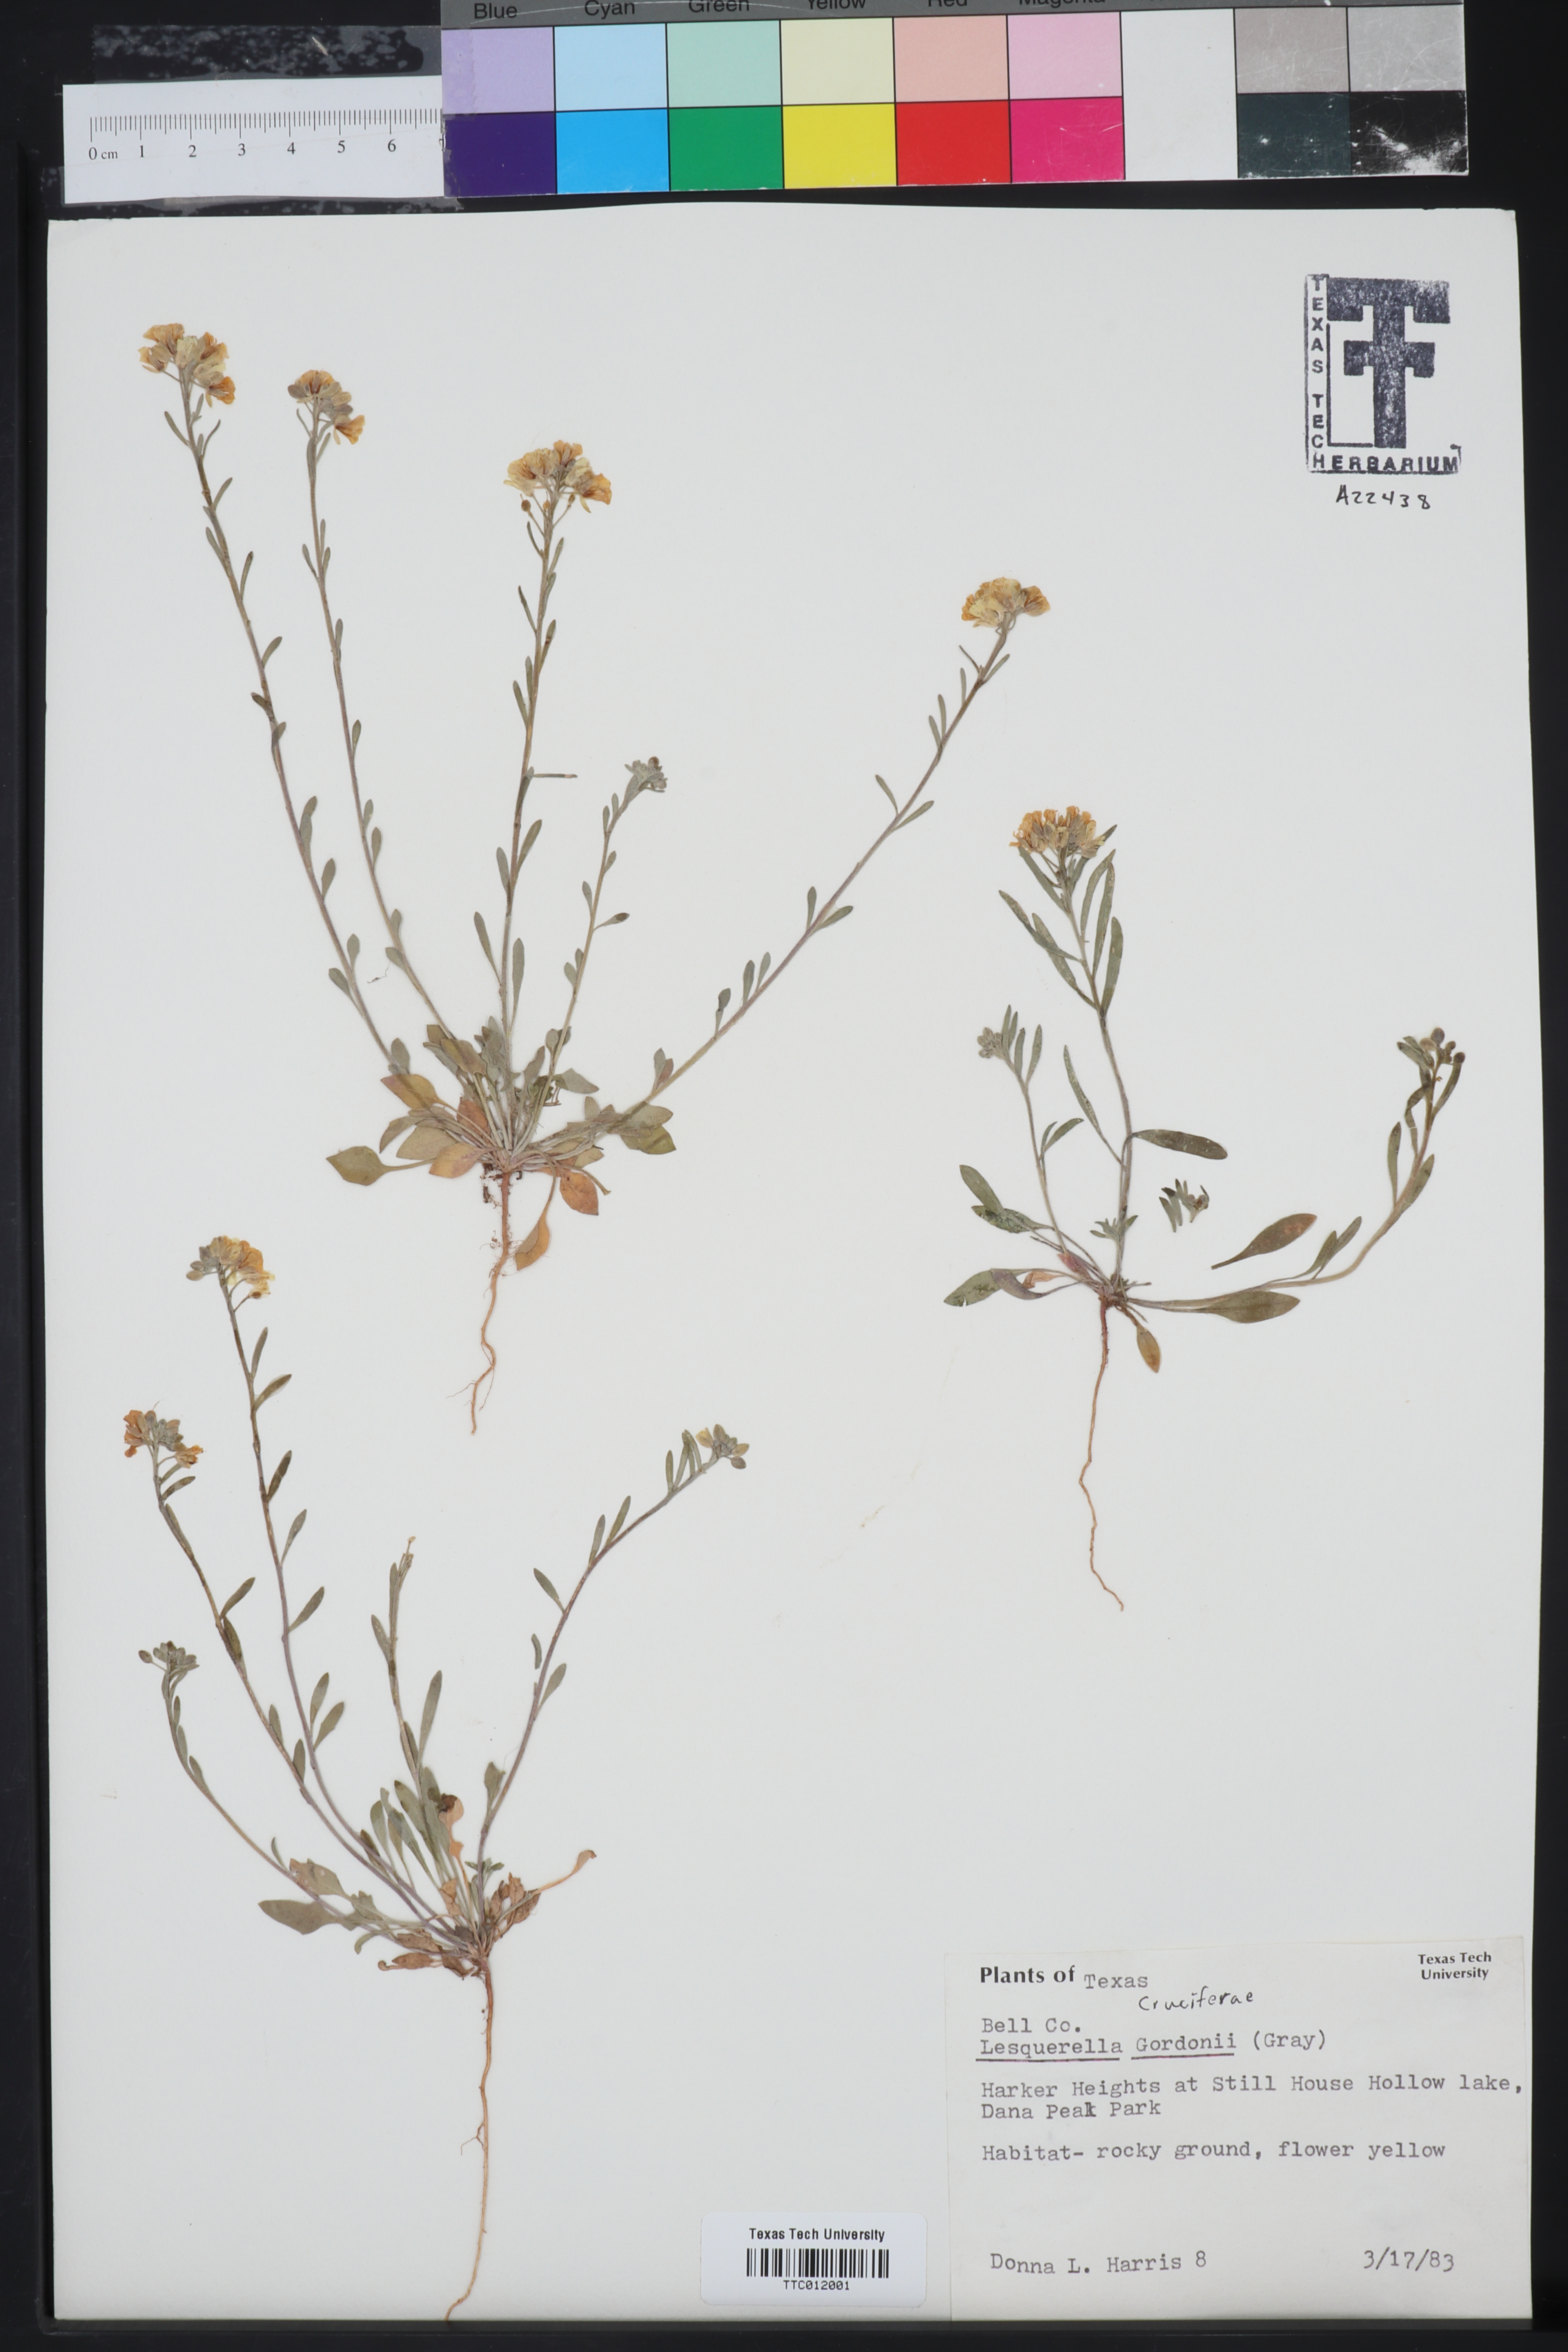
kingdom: Plantae
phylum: Tracheophyta
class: Magnoliopsida
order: Brassicales
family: Brassicaceae
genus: Physaria
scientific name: Physaria gordonii
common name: Gordon's bladderpod
